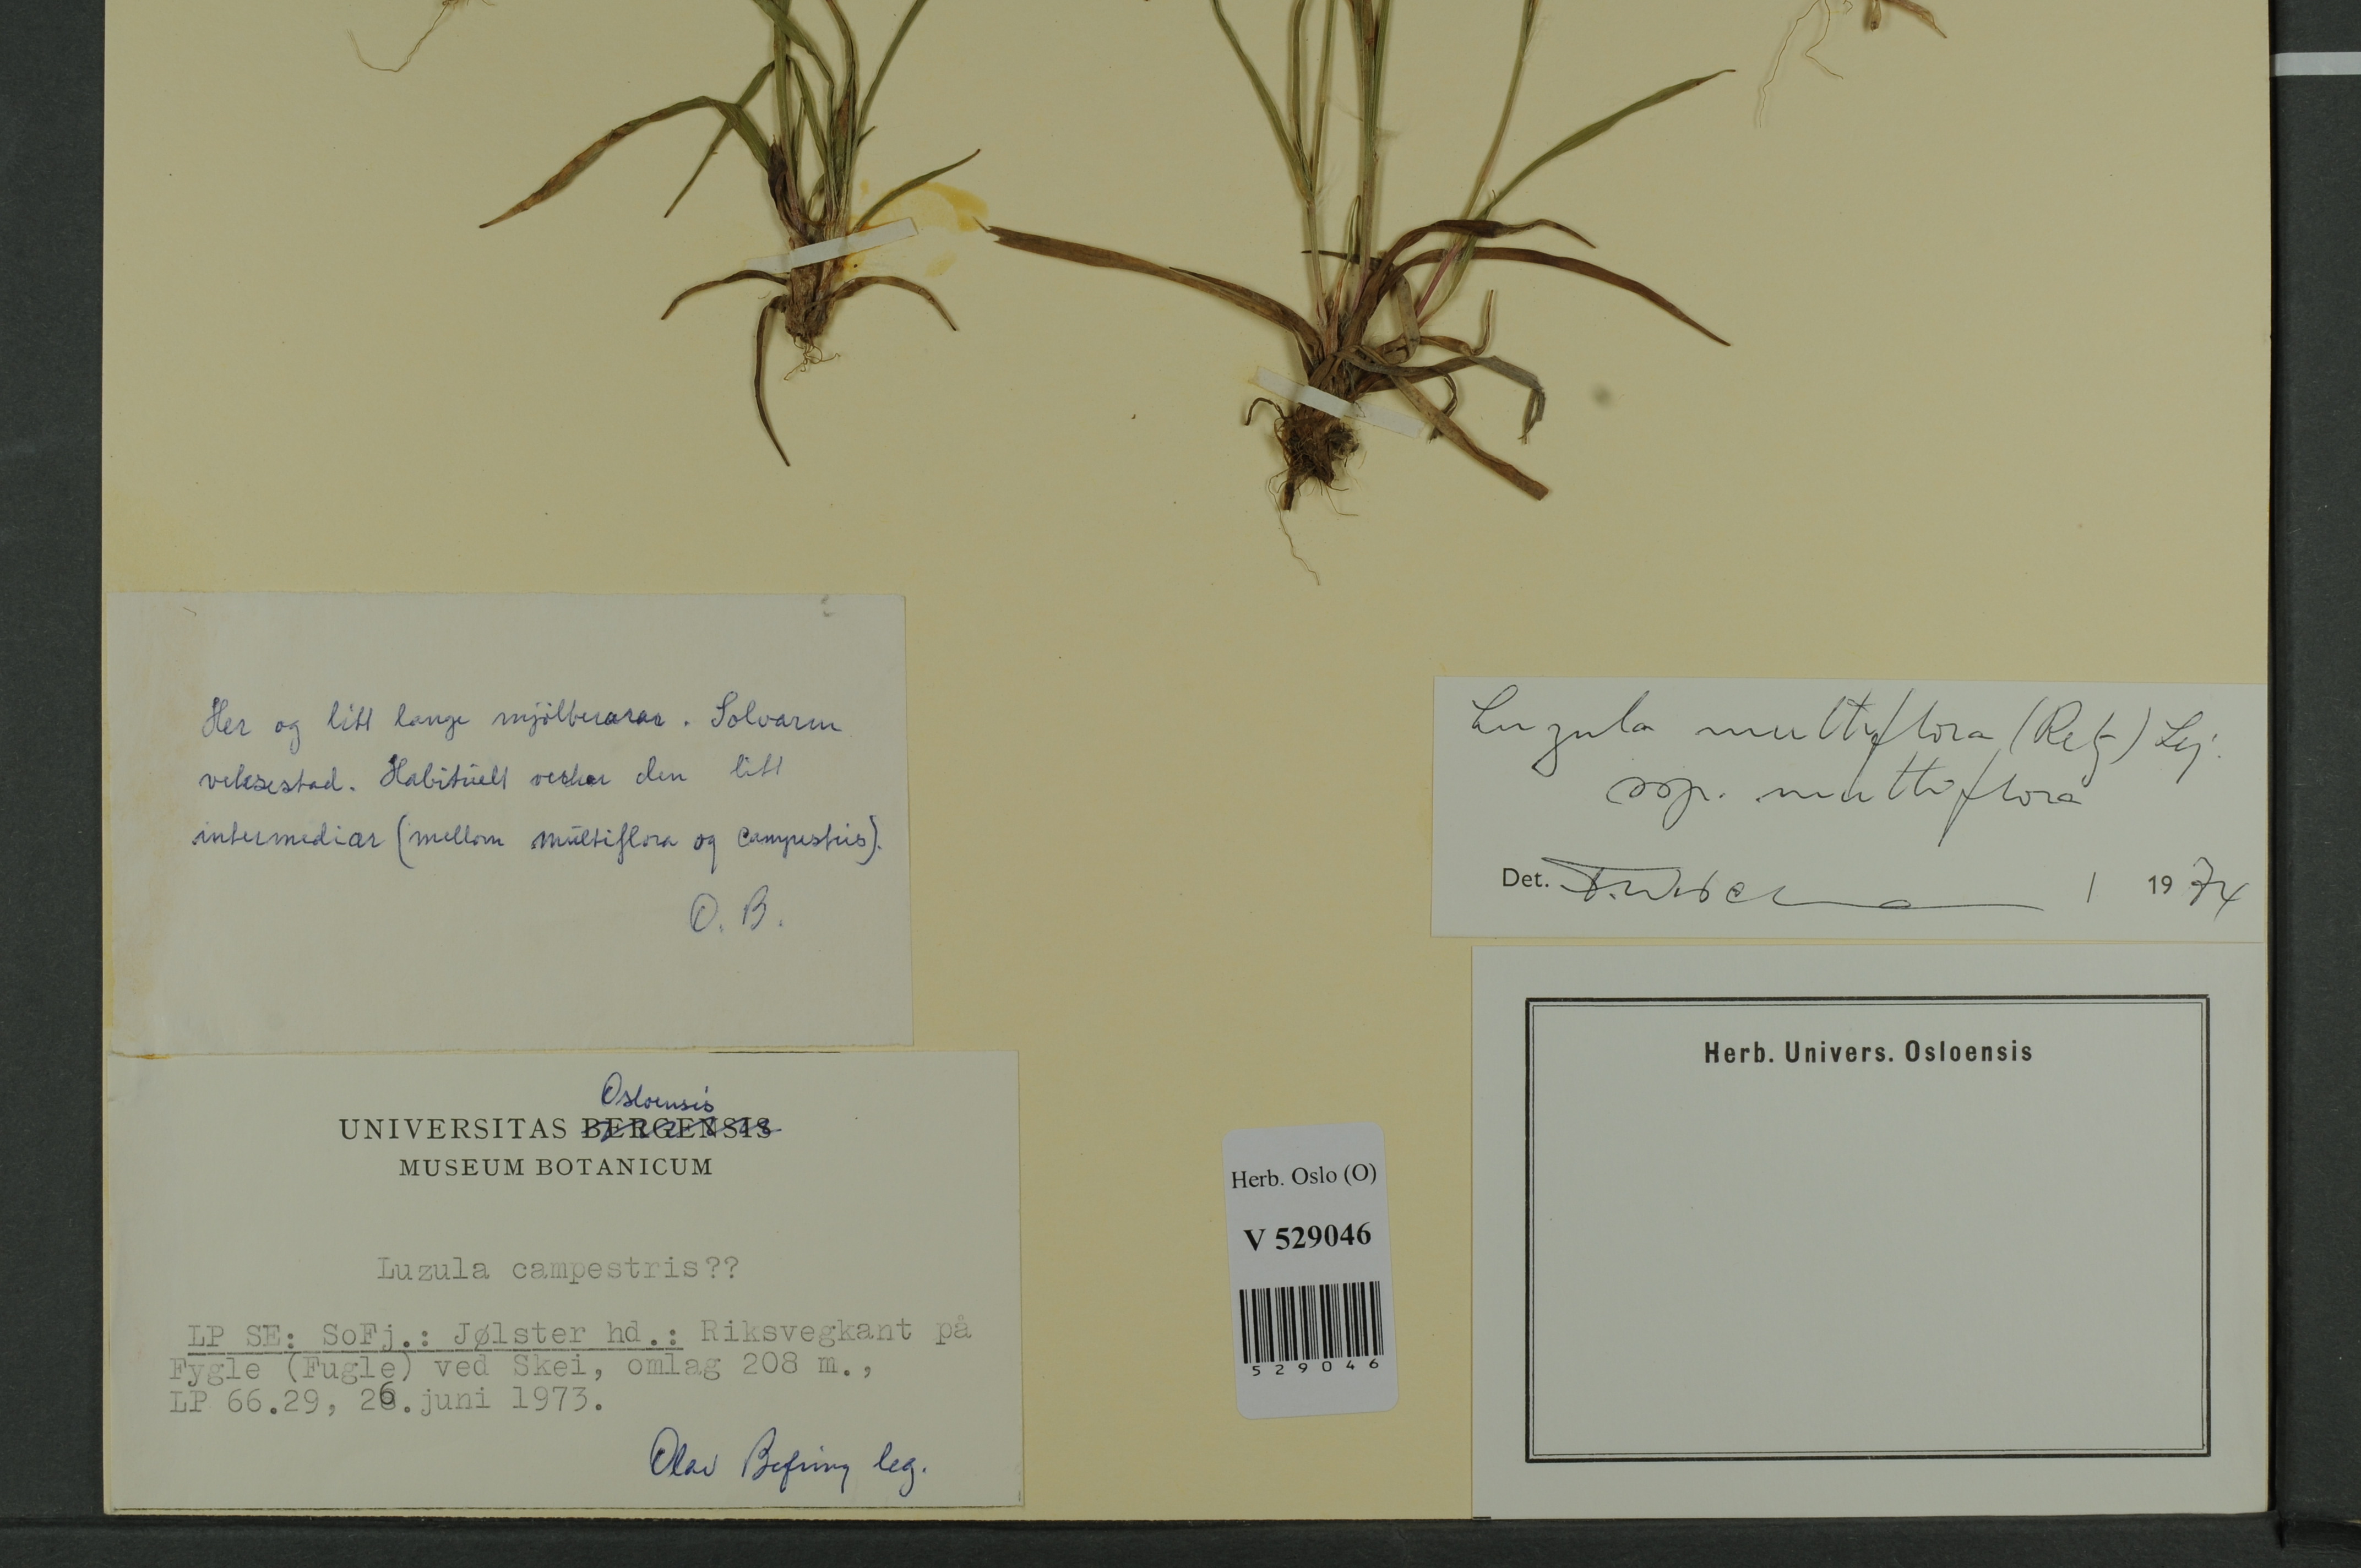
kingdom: Plantae
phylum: Tracheophyta
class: Liliopsida
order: Poales
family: Juncaceae
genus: Luzula
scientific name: Luzula multiflora
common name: Heath wood-rush
